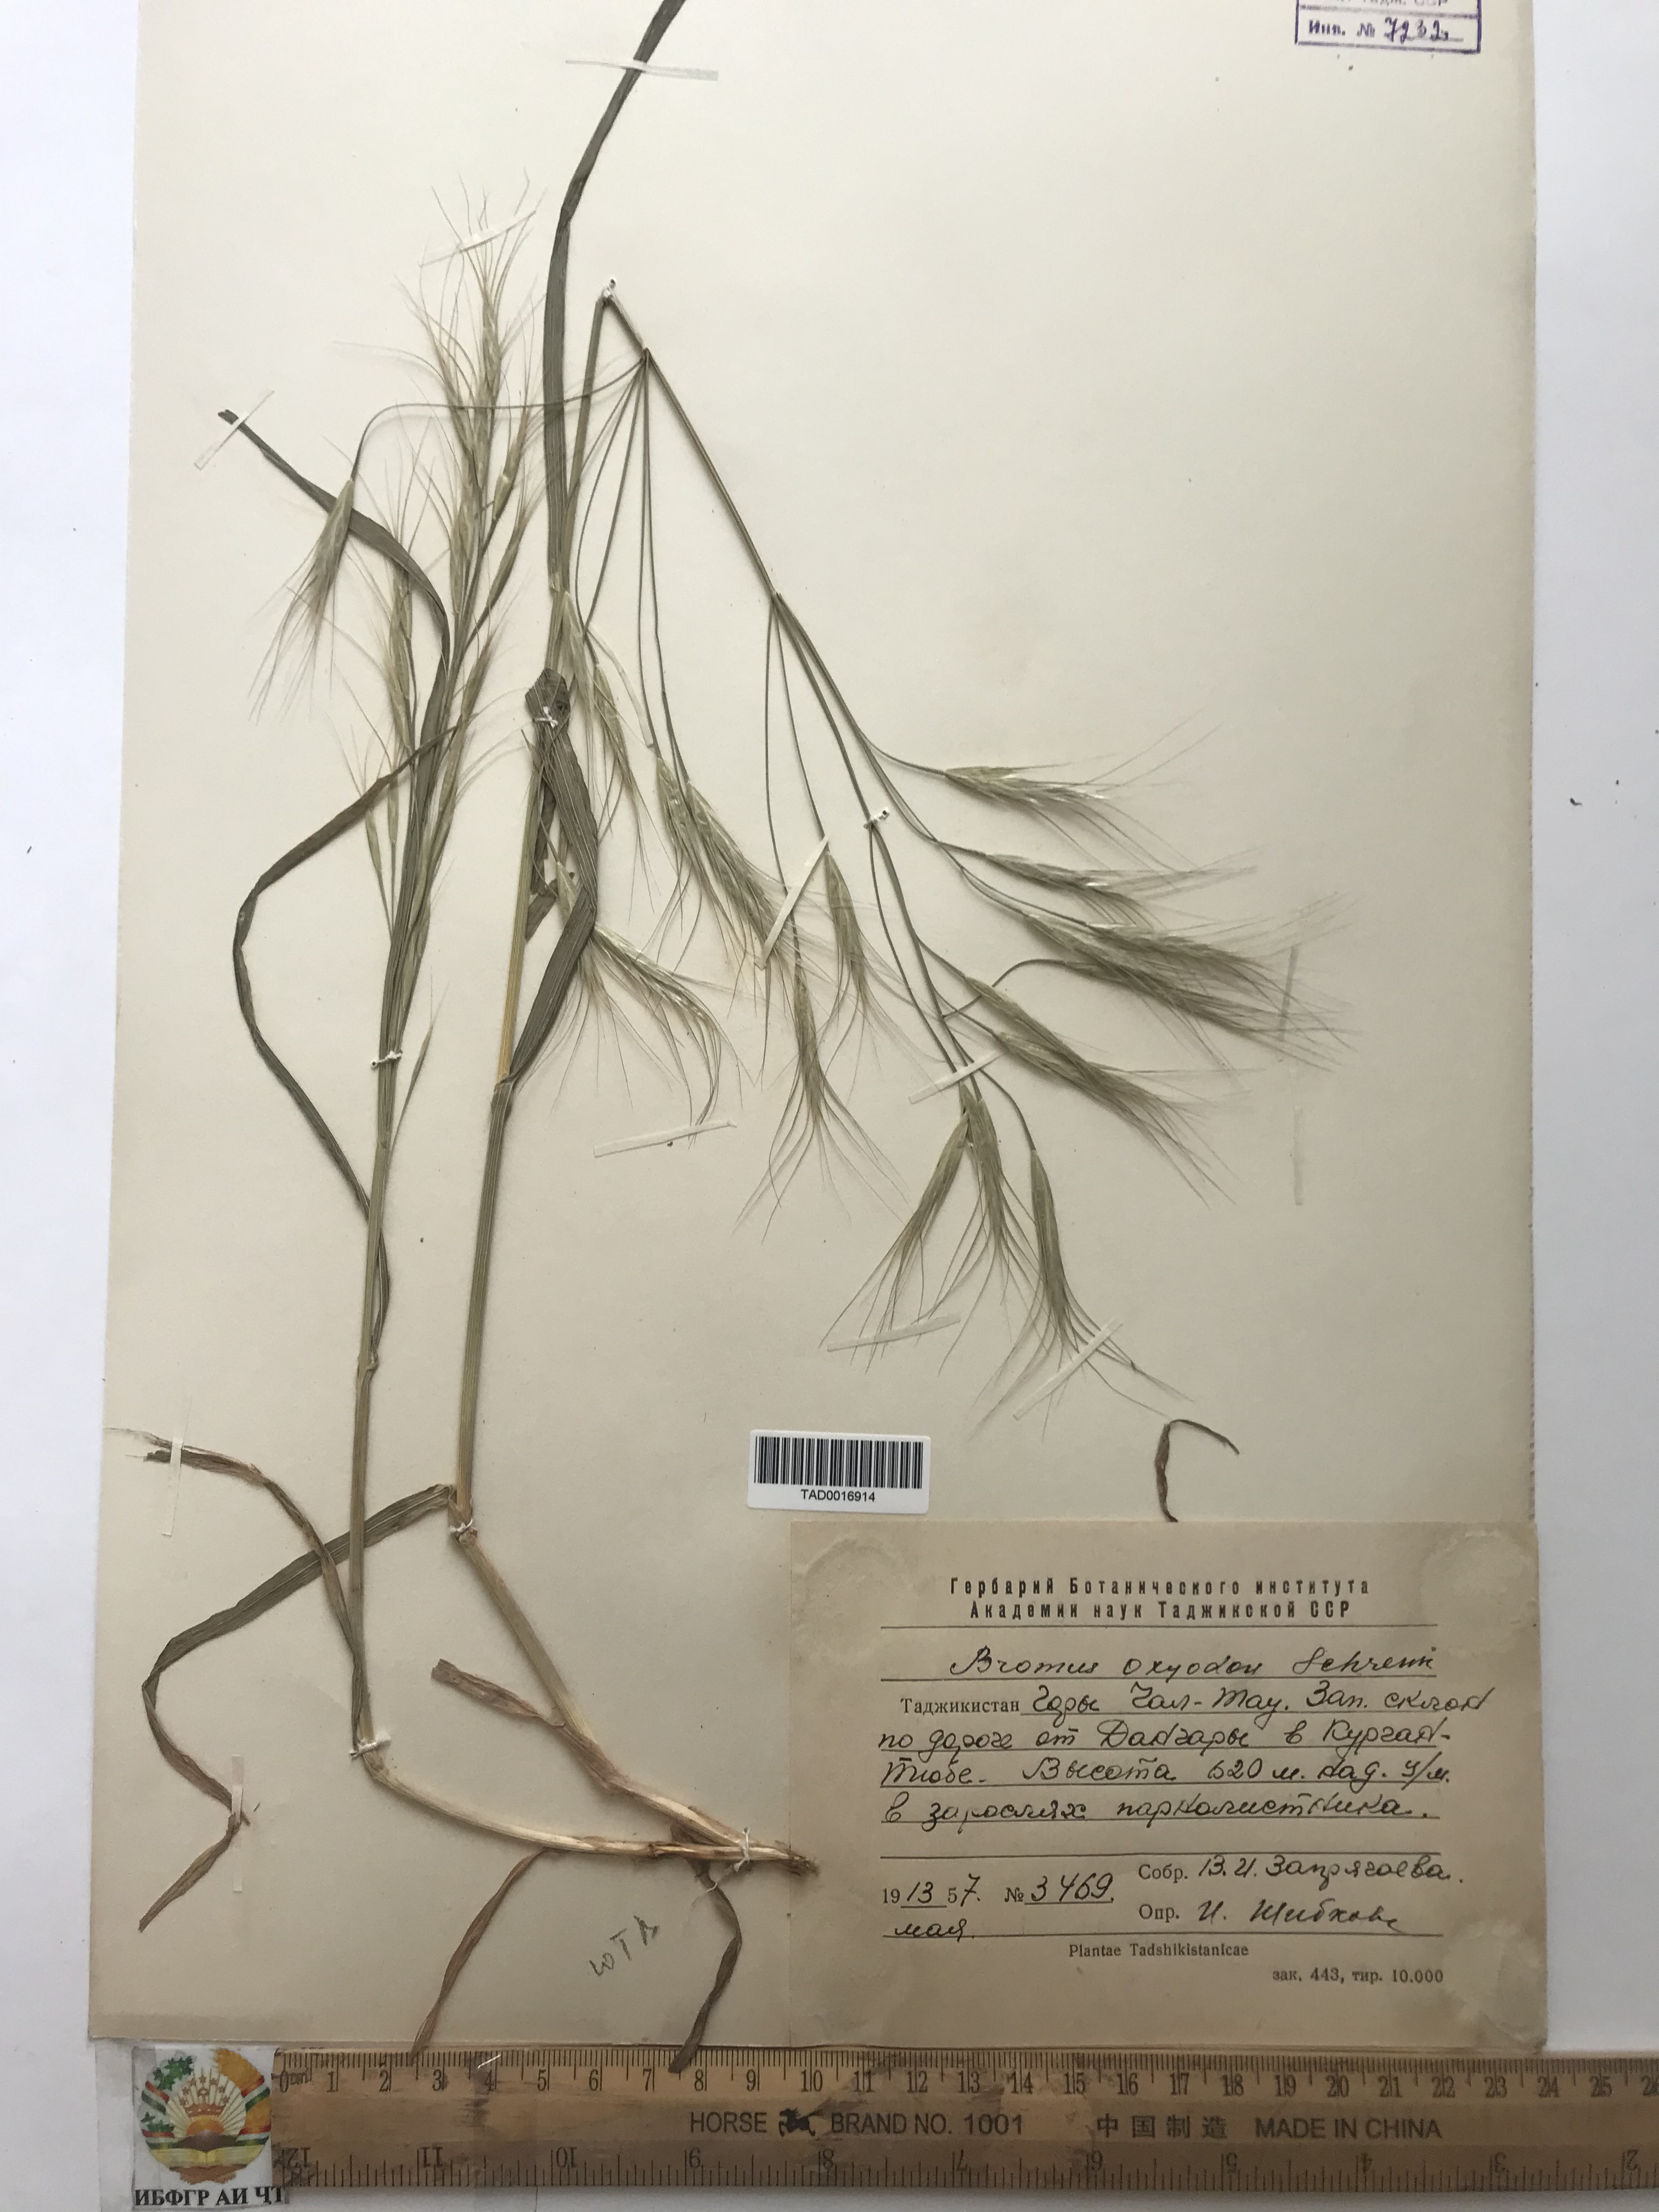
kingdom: Plantae
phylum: Tracheophyta
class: Liliopsida
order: Poales
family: Poaceae
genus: Bromus
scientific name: Bromus oxyodon
